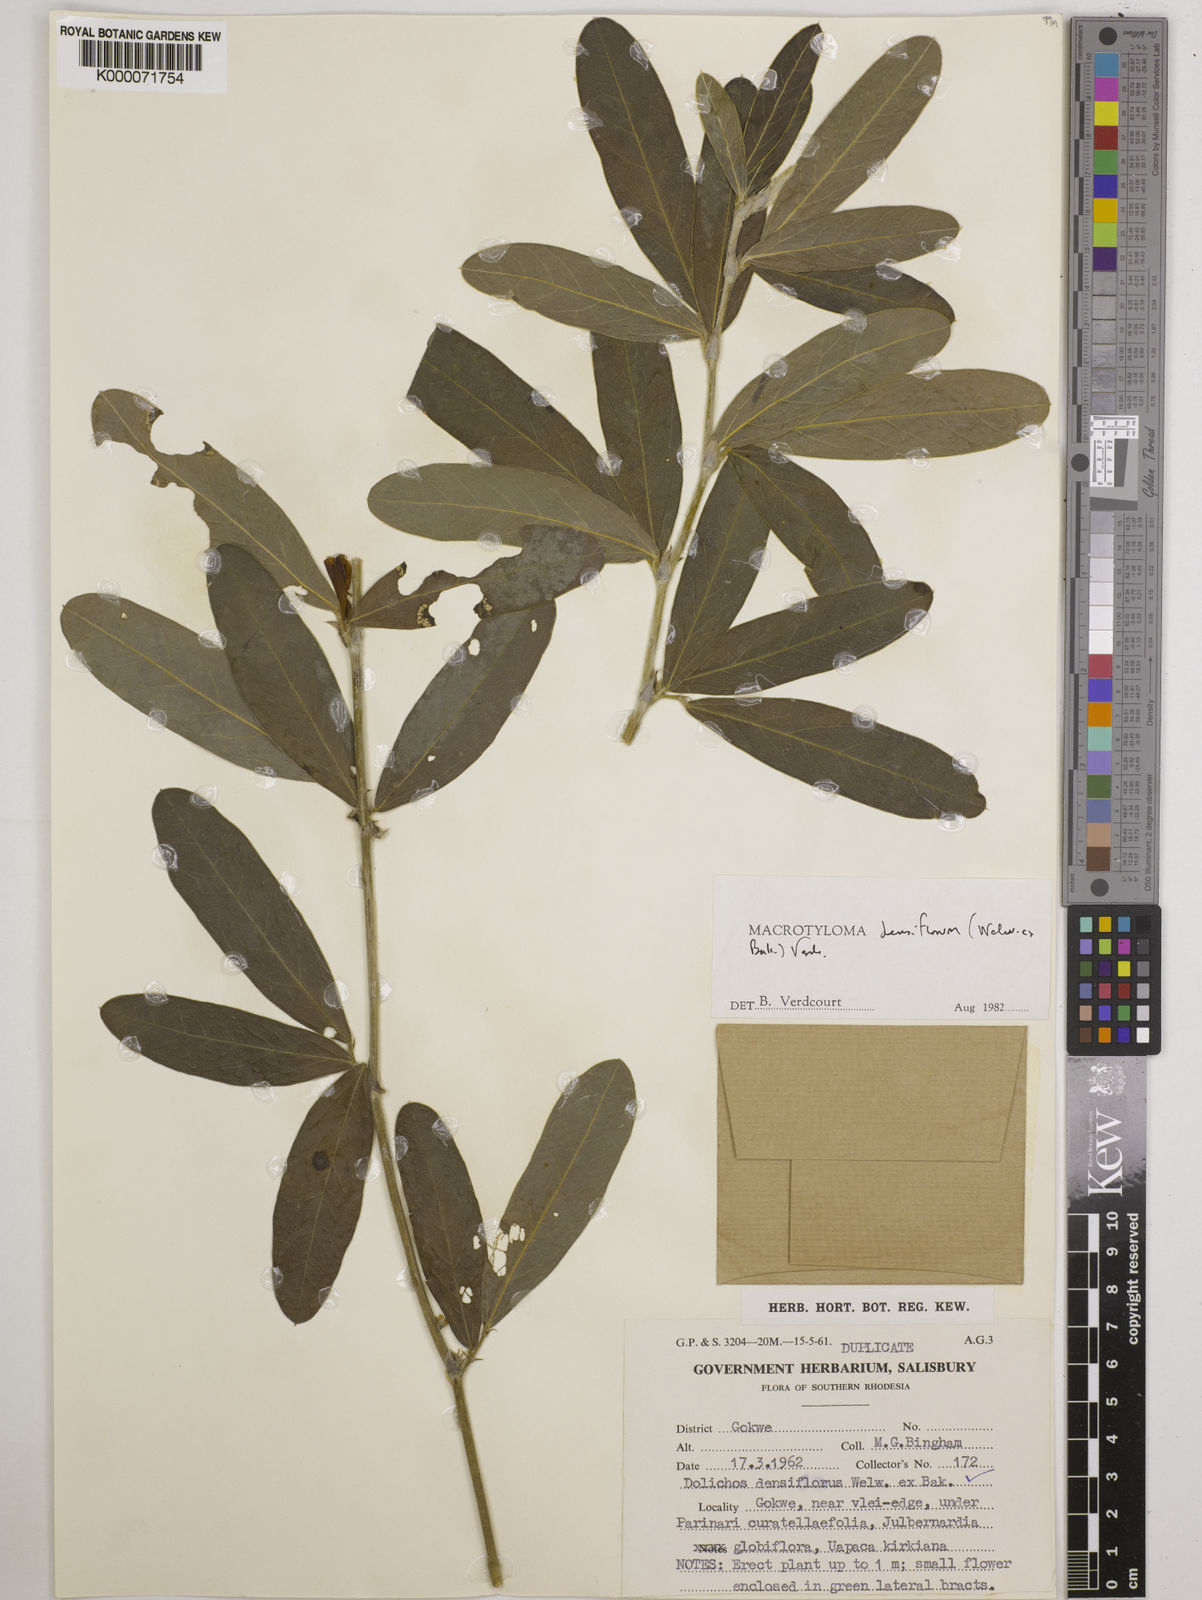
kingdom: Plantae
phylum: Tracheophyta
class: Magnoliopsida
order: Fabales
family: Fabaceae
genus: Macrotyloma
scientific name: Macrotyloma densiflorum
